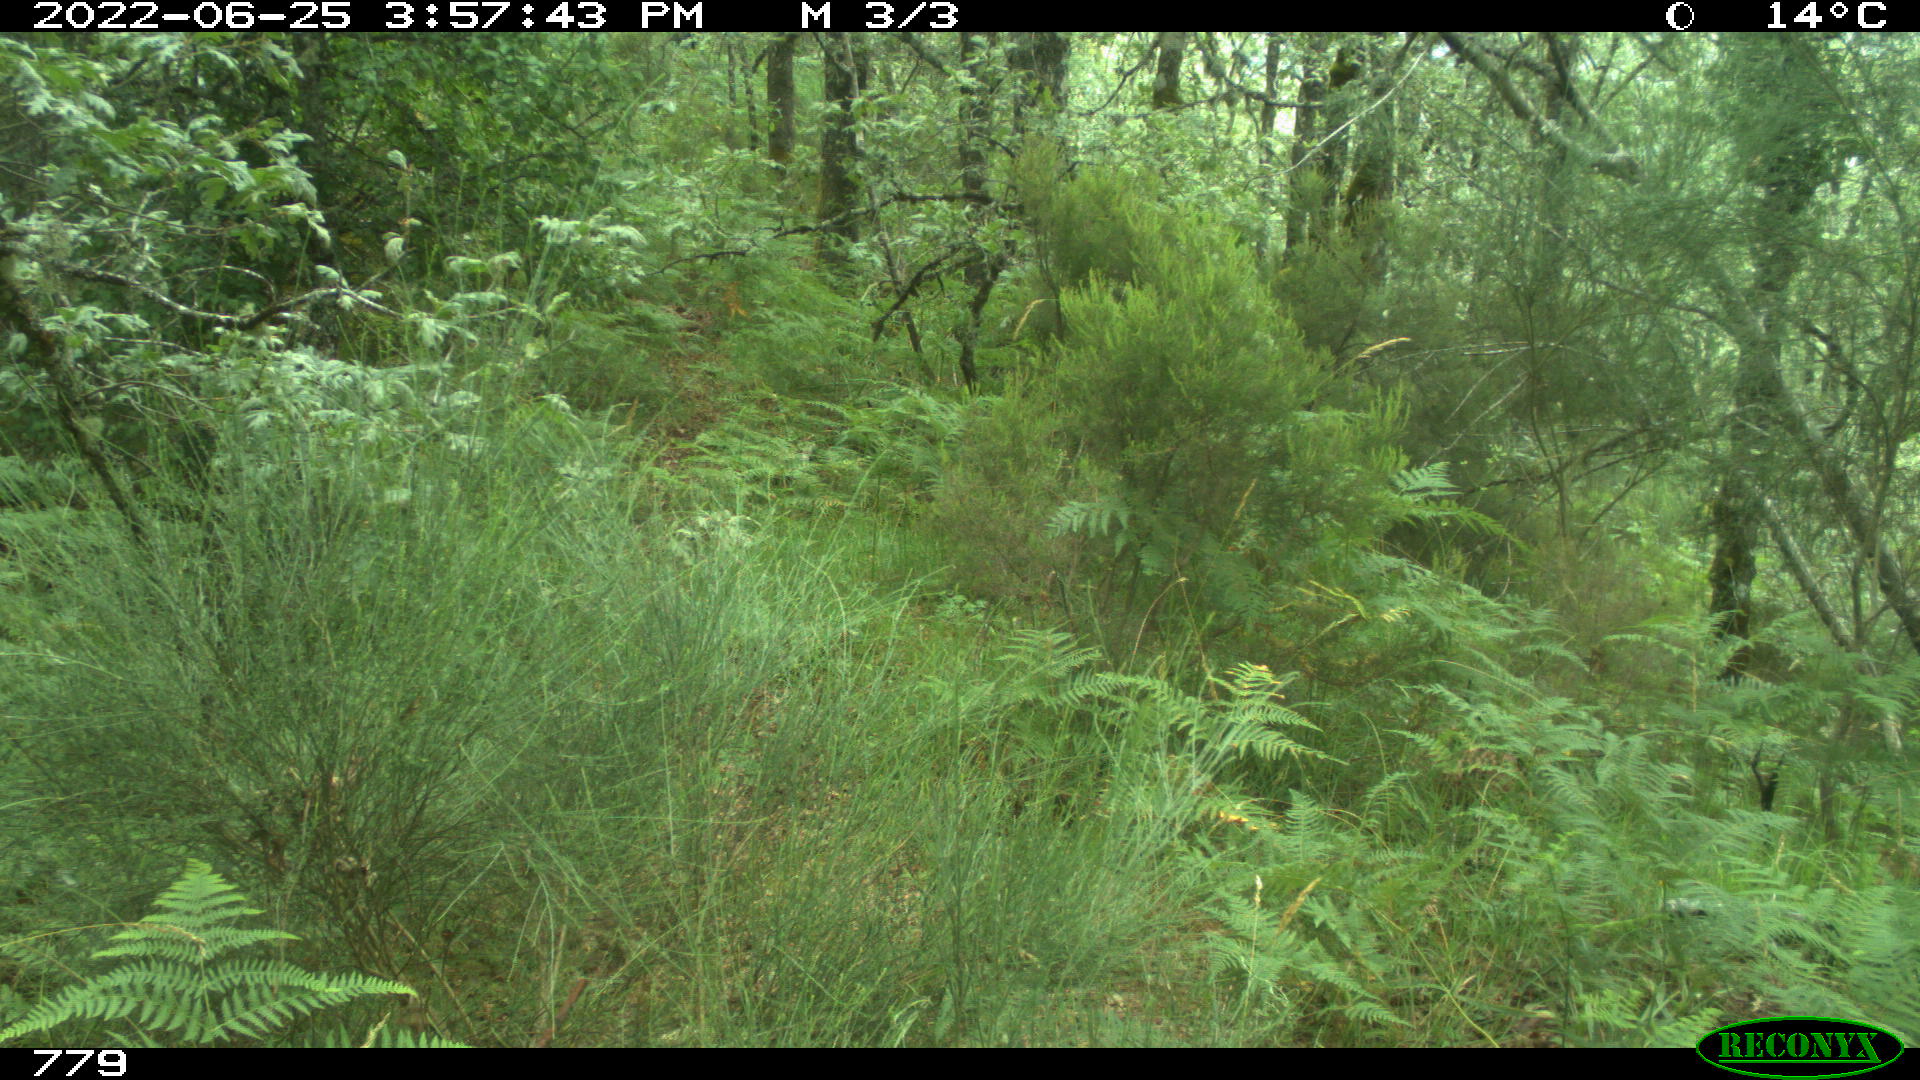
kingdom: Animalia
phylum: Chordata
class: Mammalia
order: Perissodactyla
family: Equidae
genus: Equus
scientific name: Equus caballus
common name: Horse
